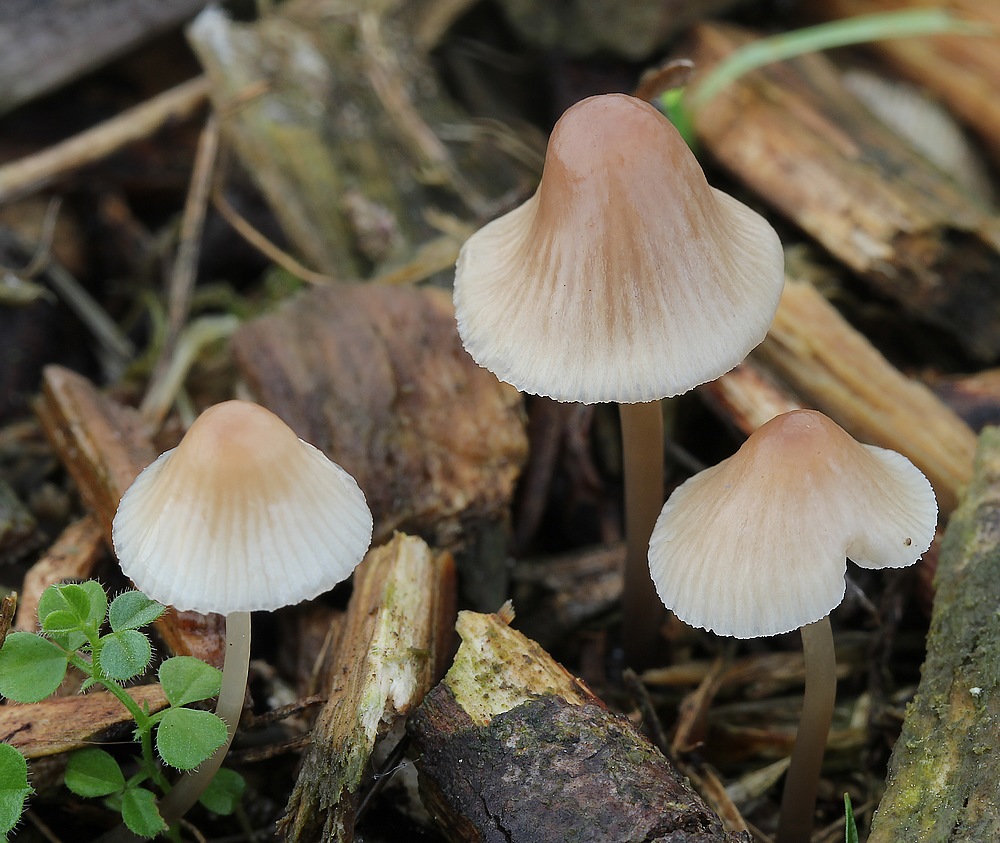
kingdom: Fungi
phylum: Basidiomycota
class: Agaricomycetes
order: Agaricales
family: Mycenaceae
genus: Mycena
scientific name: Mycena metata
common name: rødlig huesvamp
